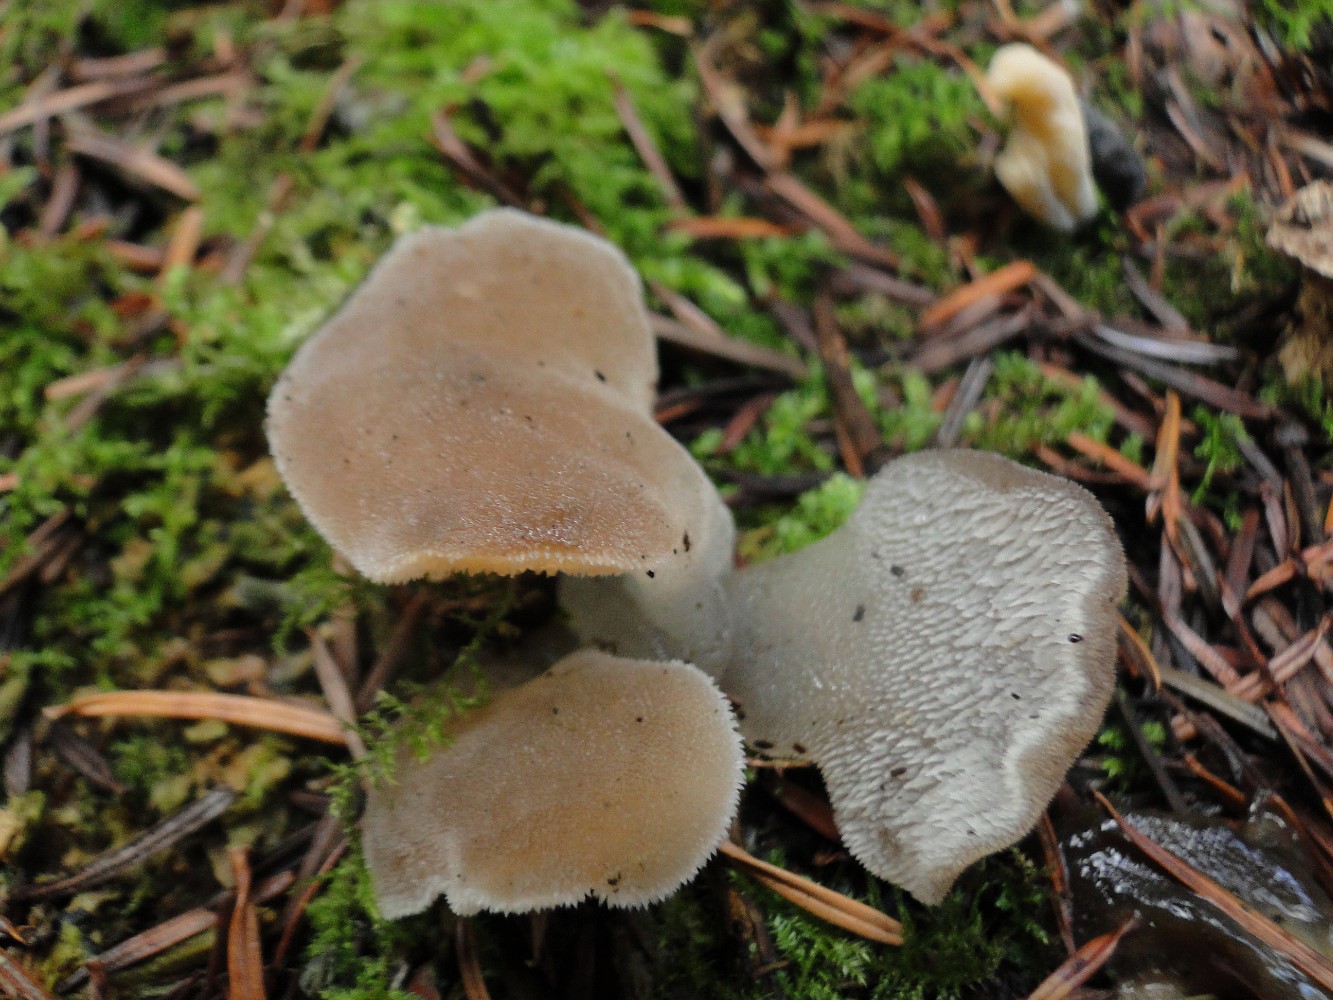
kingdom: Fungi
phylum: Basidiomycota
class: Agaricomycetes
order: Auriculariales
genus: Pseudohydnum
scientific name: Pseudohydnum gelatinosum
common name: bævretand
